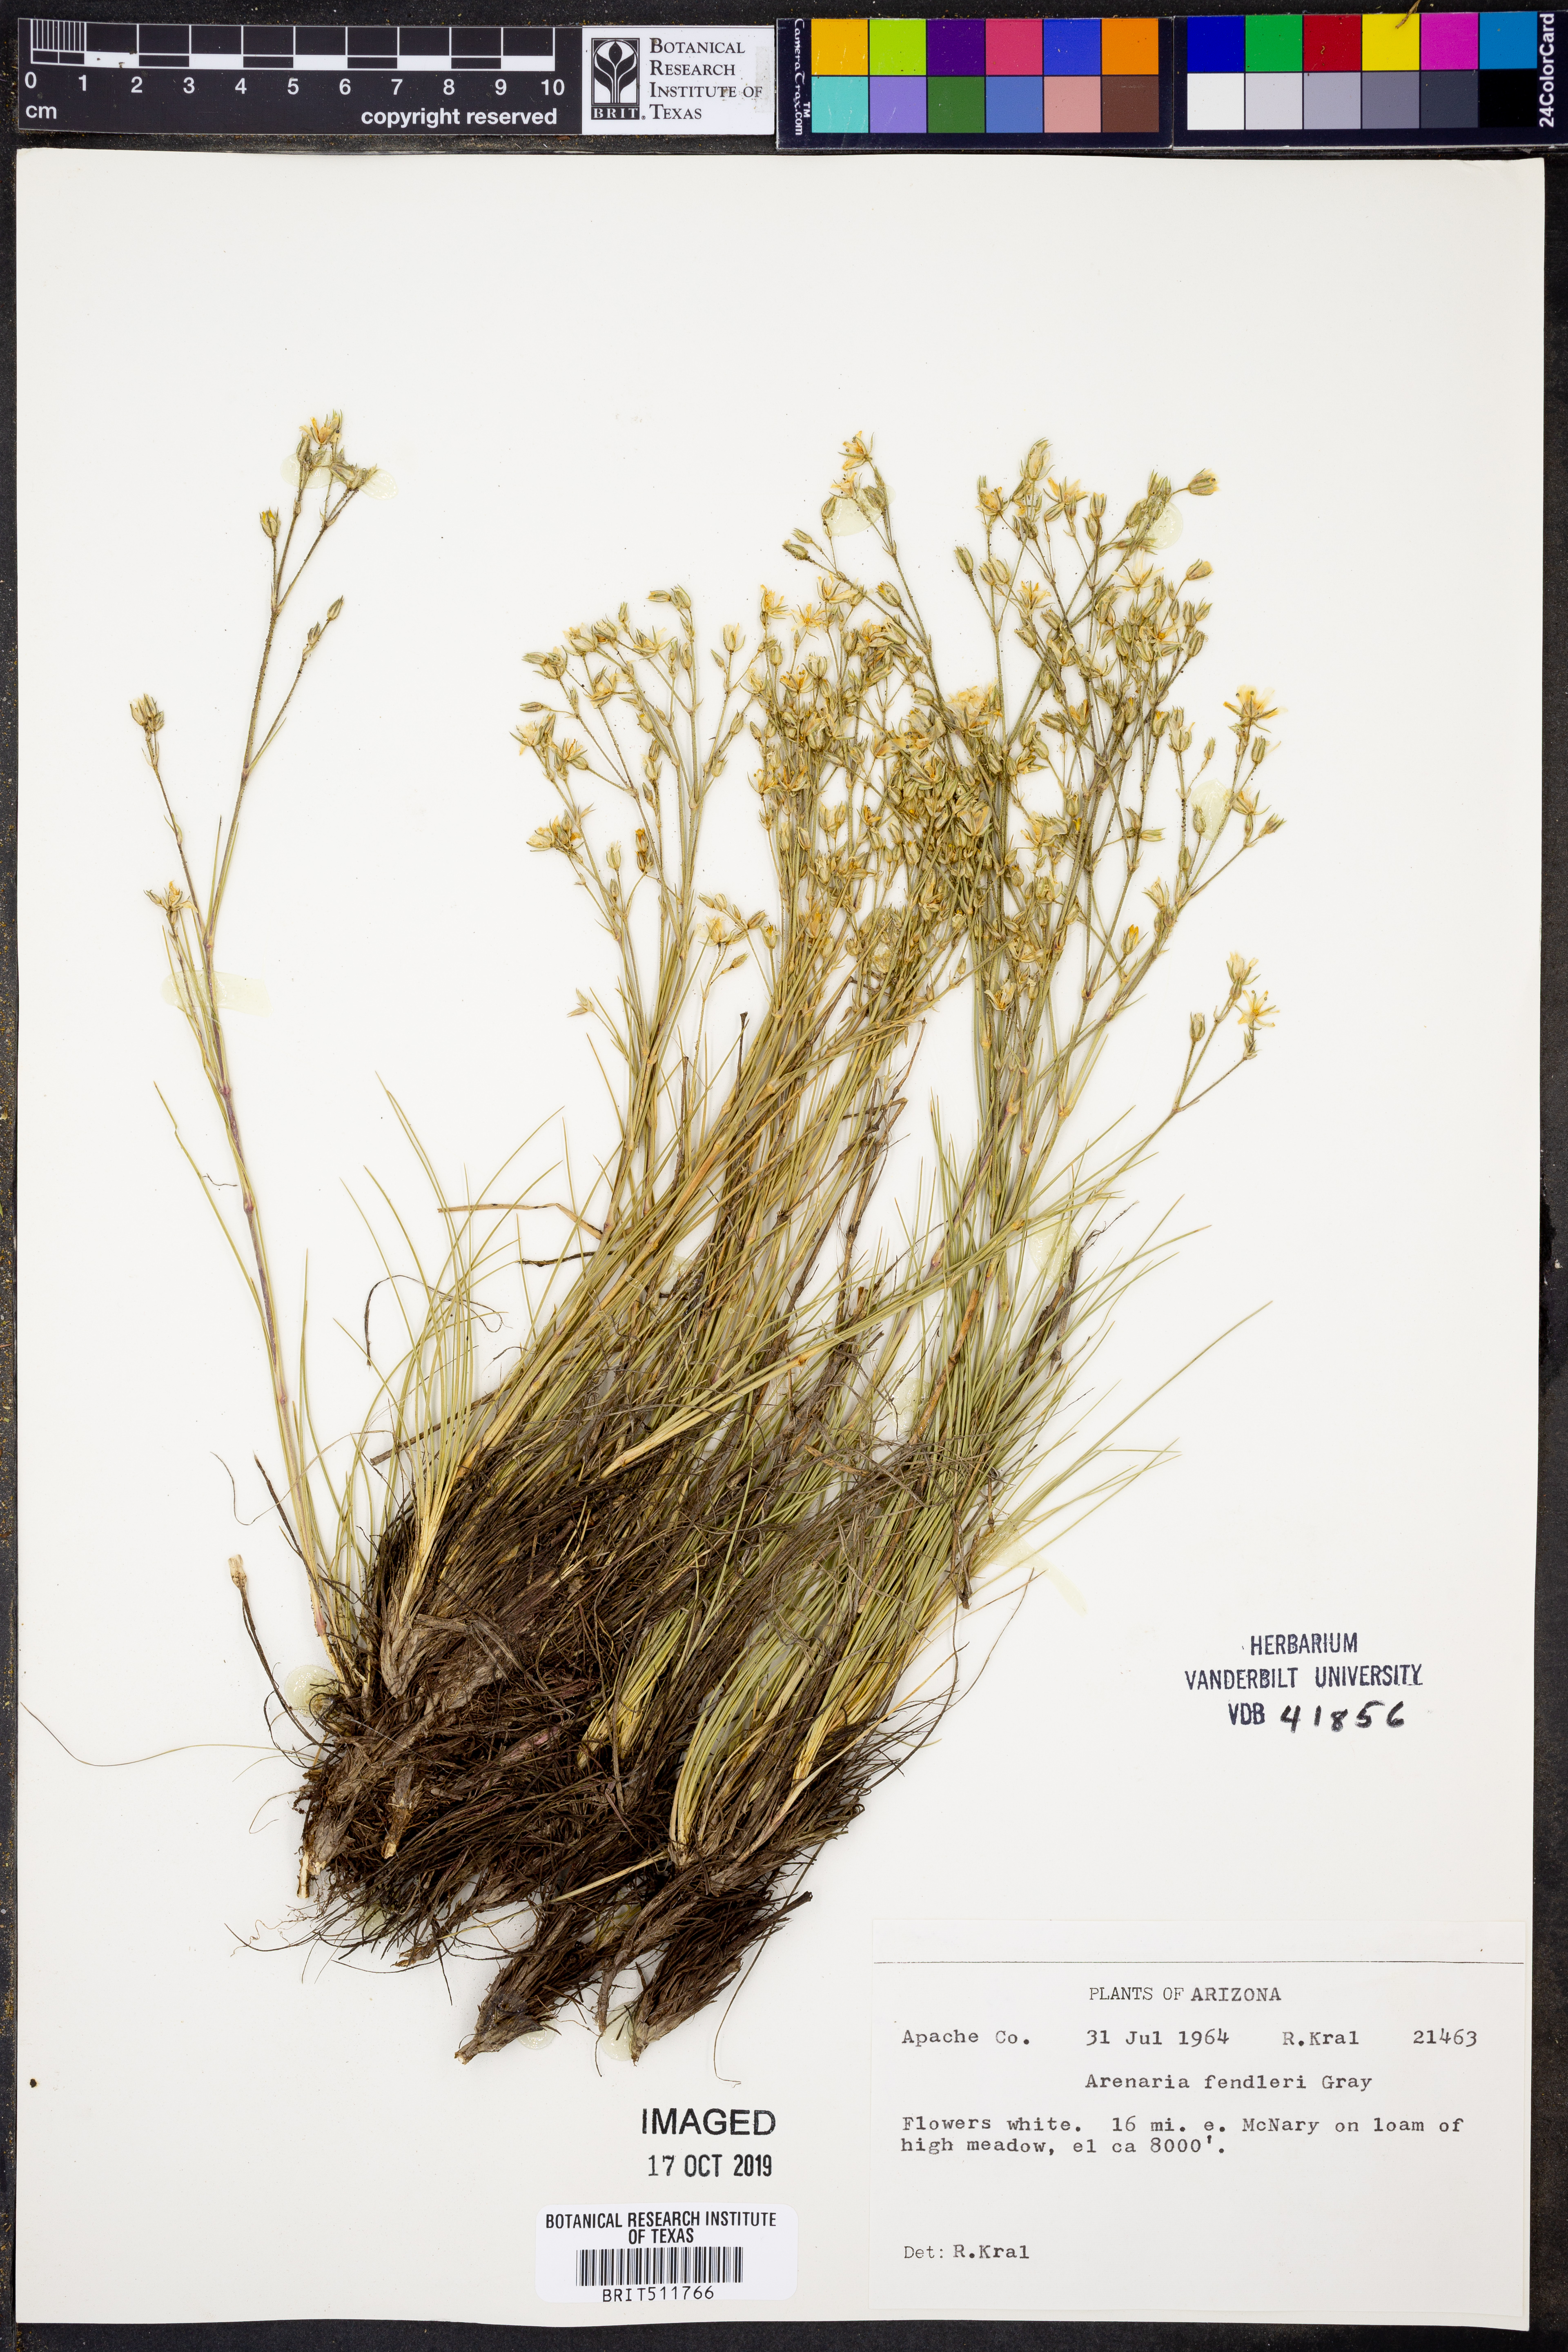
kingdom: Plantae
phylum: Tracheophyta
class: Magnoliopsida
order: Caryophyllales
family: Caryophyllaceae
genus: Eremogone
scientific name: Eremogone fendleri
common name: Fendler's sandwort
